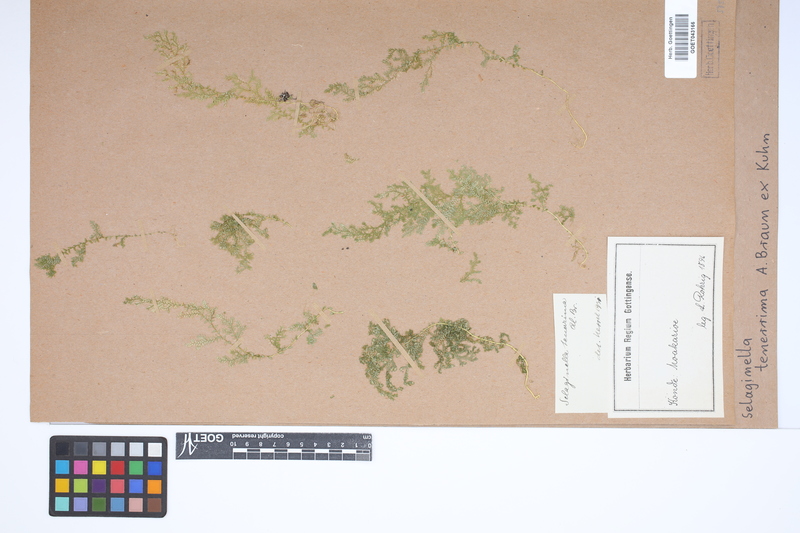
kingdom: Plantae
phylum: Tracheophyta
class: Lycopodiopsida
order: Selaginellales
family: Selaginellaceae
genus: Selaginella
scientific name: Selaginella tenerrima
